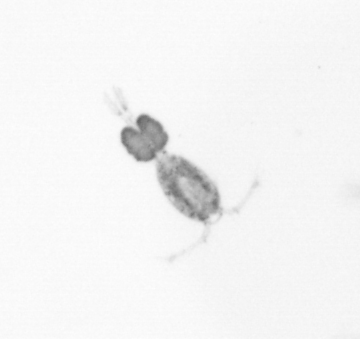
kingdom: Animalia
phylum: Arthropoda
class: Copepoda
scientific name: Copepoda
